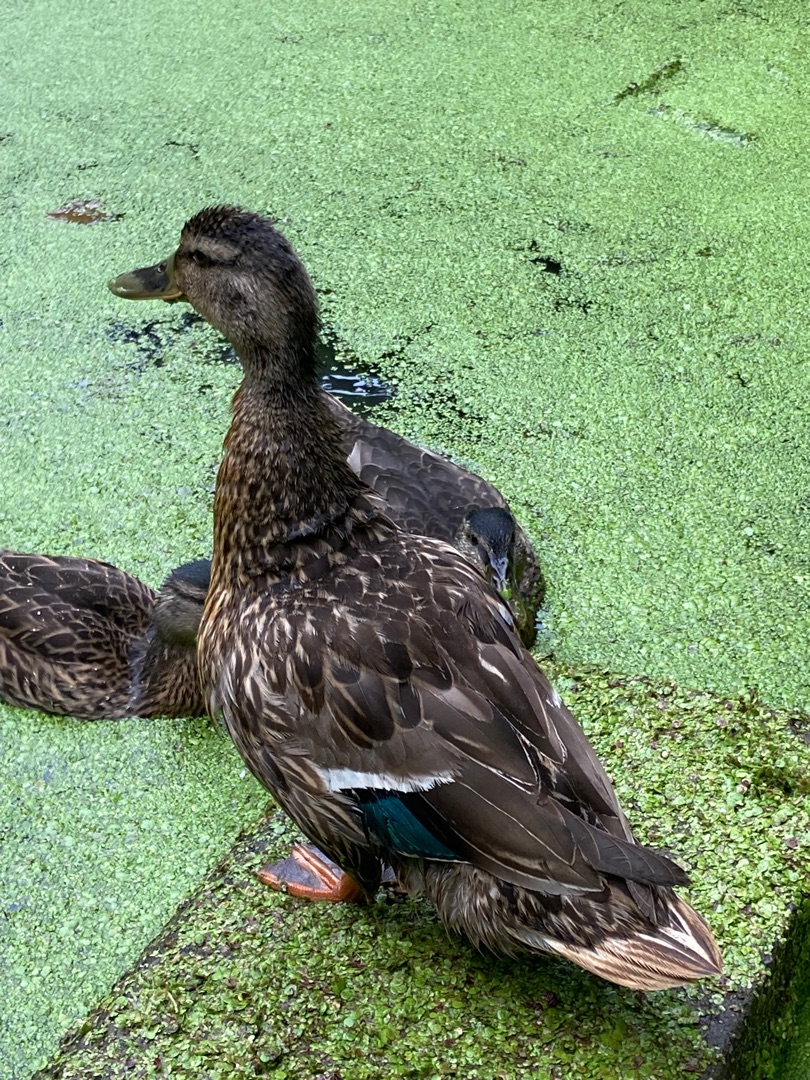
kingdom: Animalia
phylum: Chordata
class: Aves
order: Anseriformes
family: Anatidae
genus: Anas
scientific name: Anas platyrhynchos
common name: Gråand
